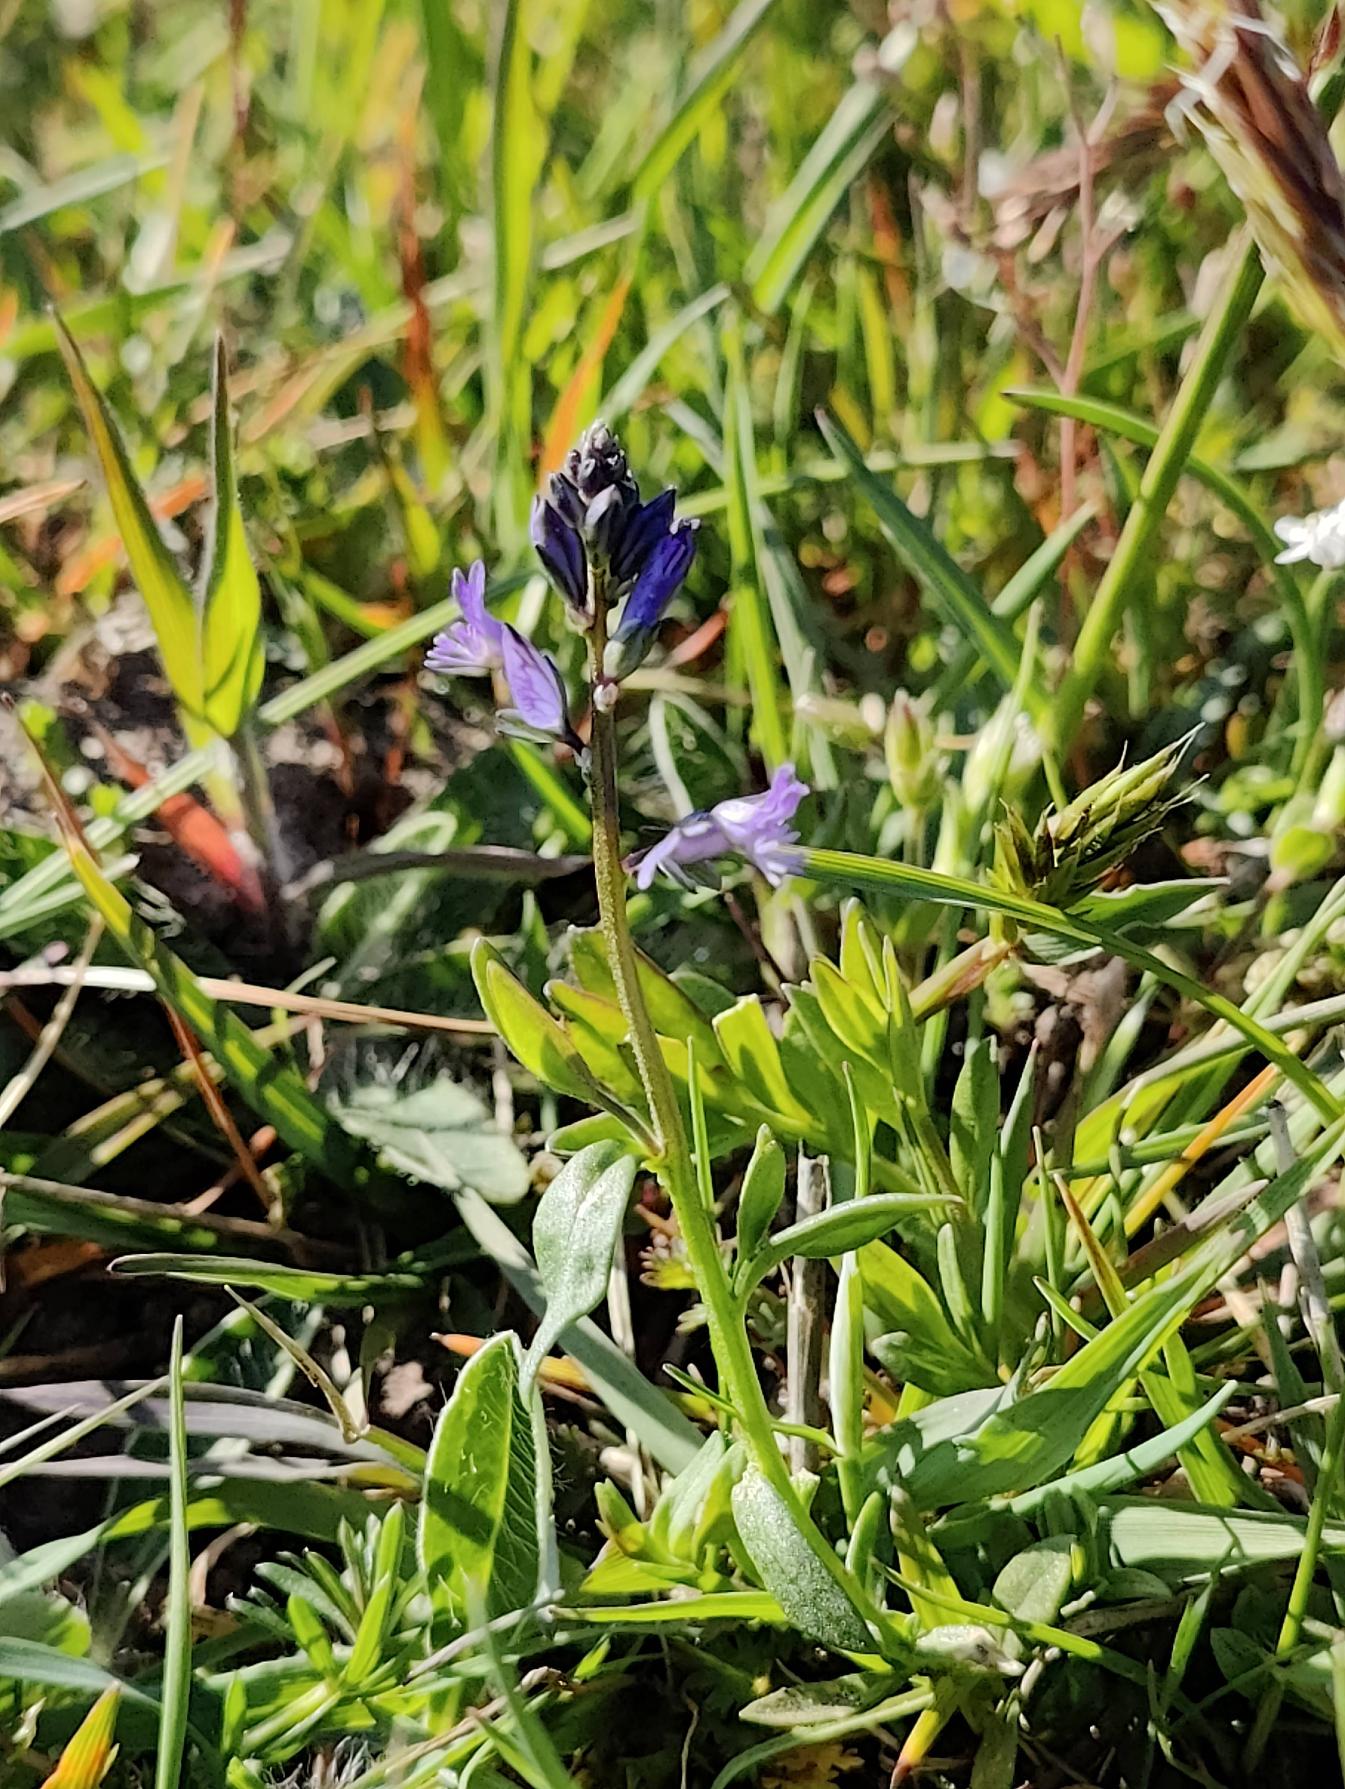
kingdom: Plantae
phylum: Tracheophyta
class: Magnoliopsida
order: Fabales
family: Polygalaceae
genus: Polygala
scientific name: Polygala vulgaris
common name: Almindelig mælkeurt
